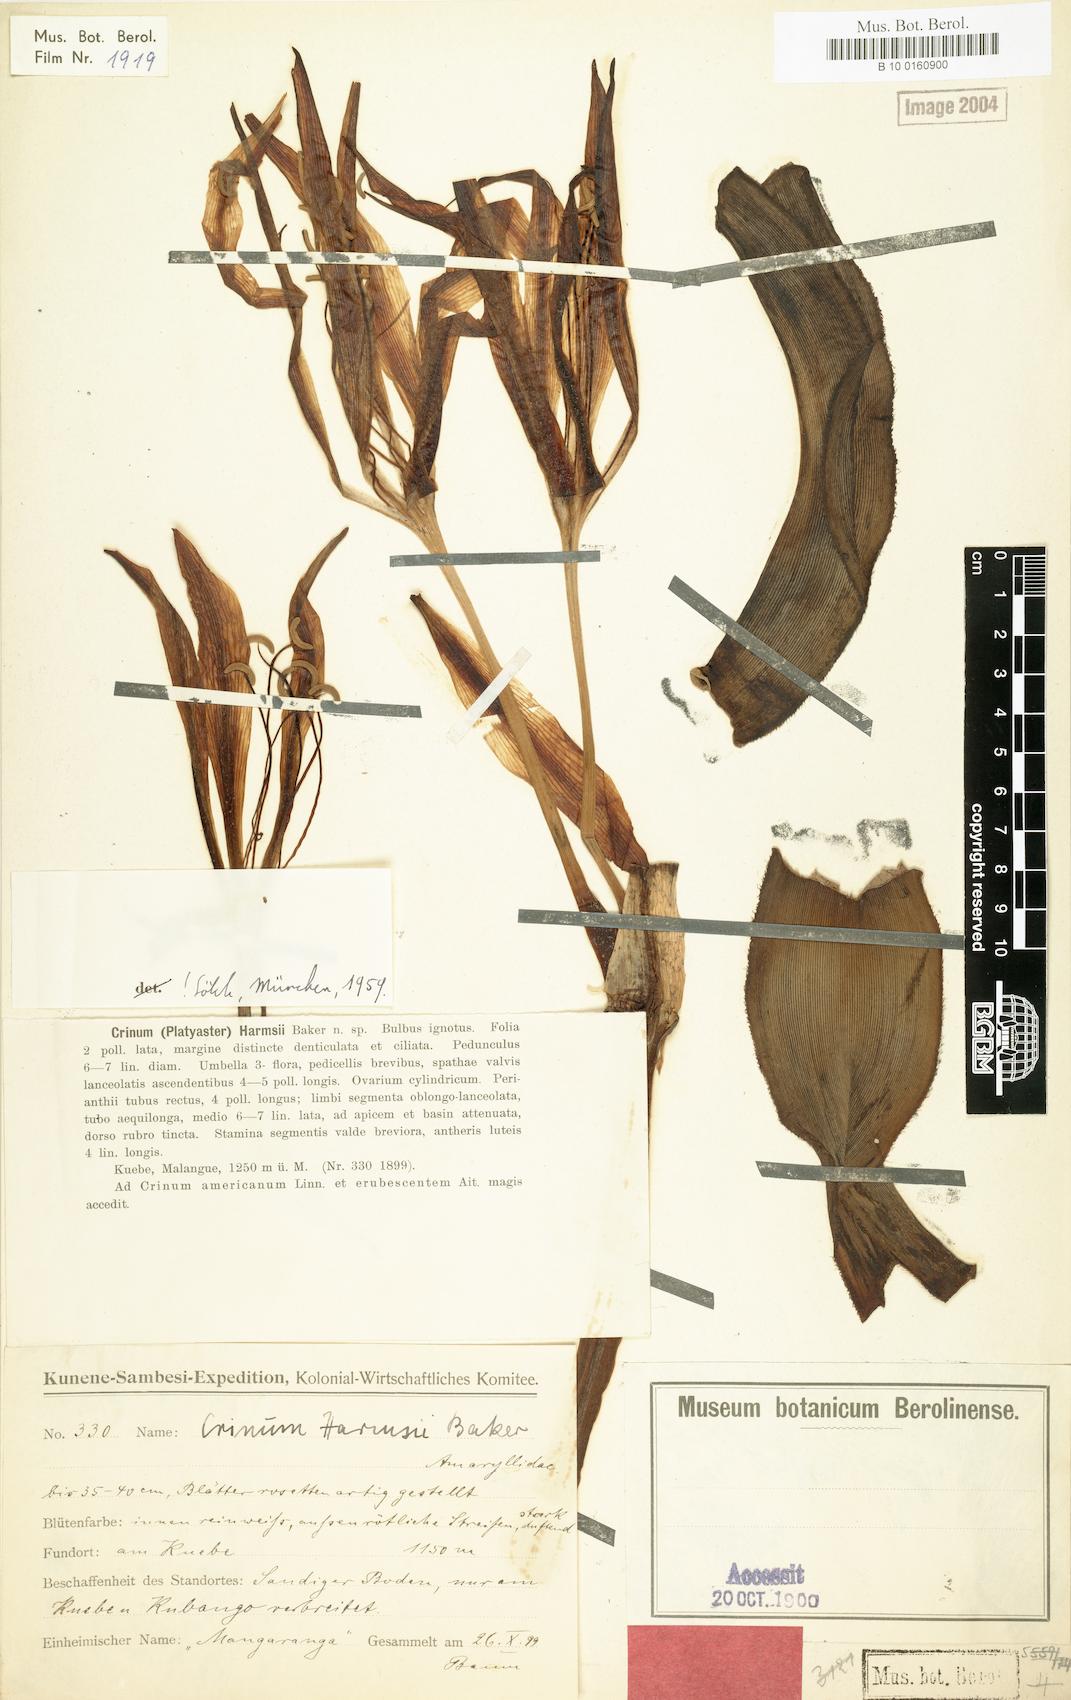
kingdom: Plantae
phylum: Tracheophyta
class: Liliopsida
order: Asparagales
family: Amaryllidaceae
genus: Crinum
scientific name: Crinum harmsii
